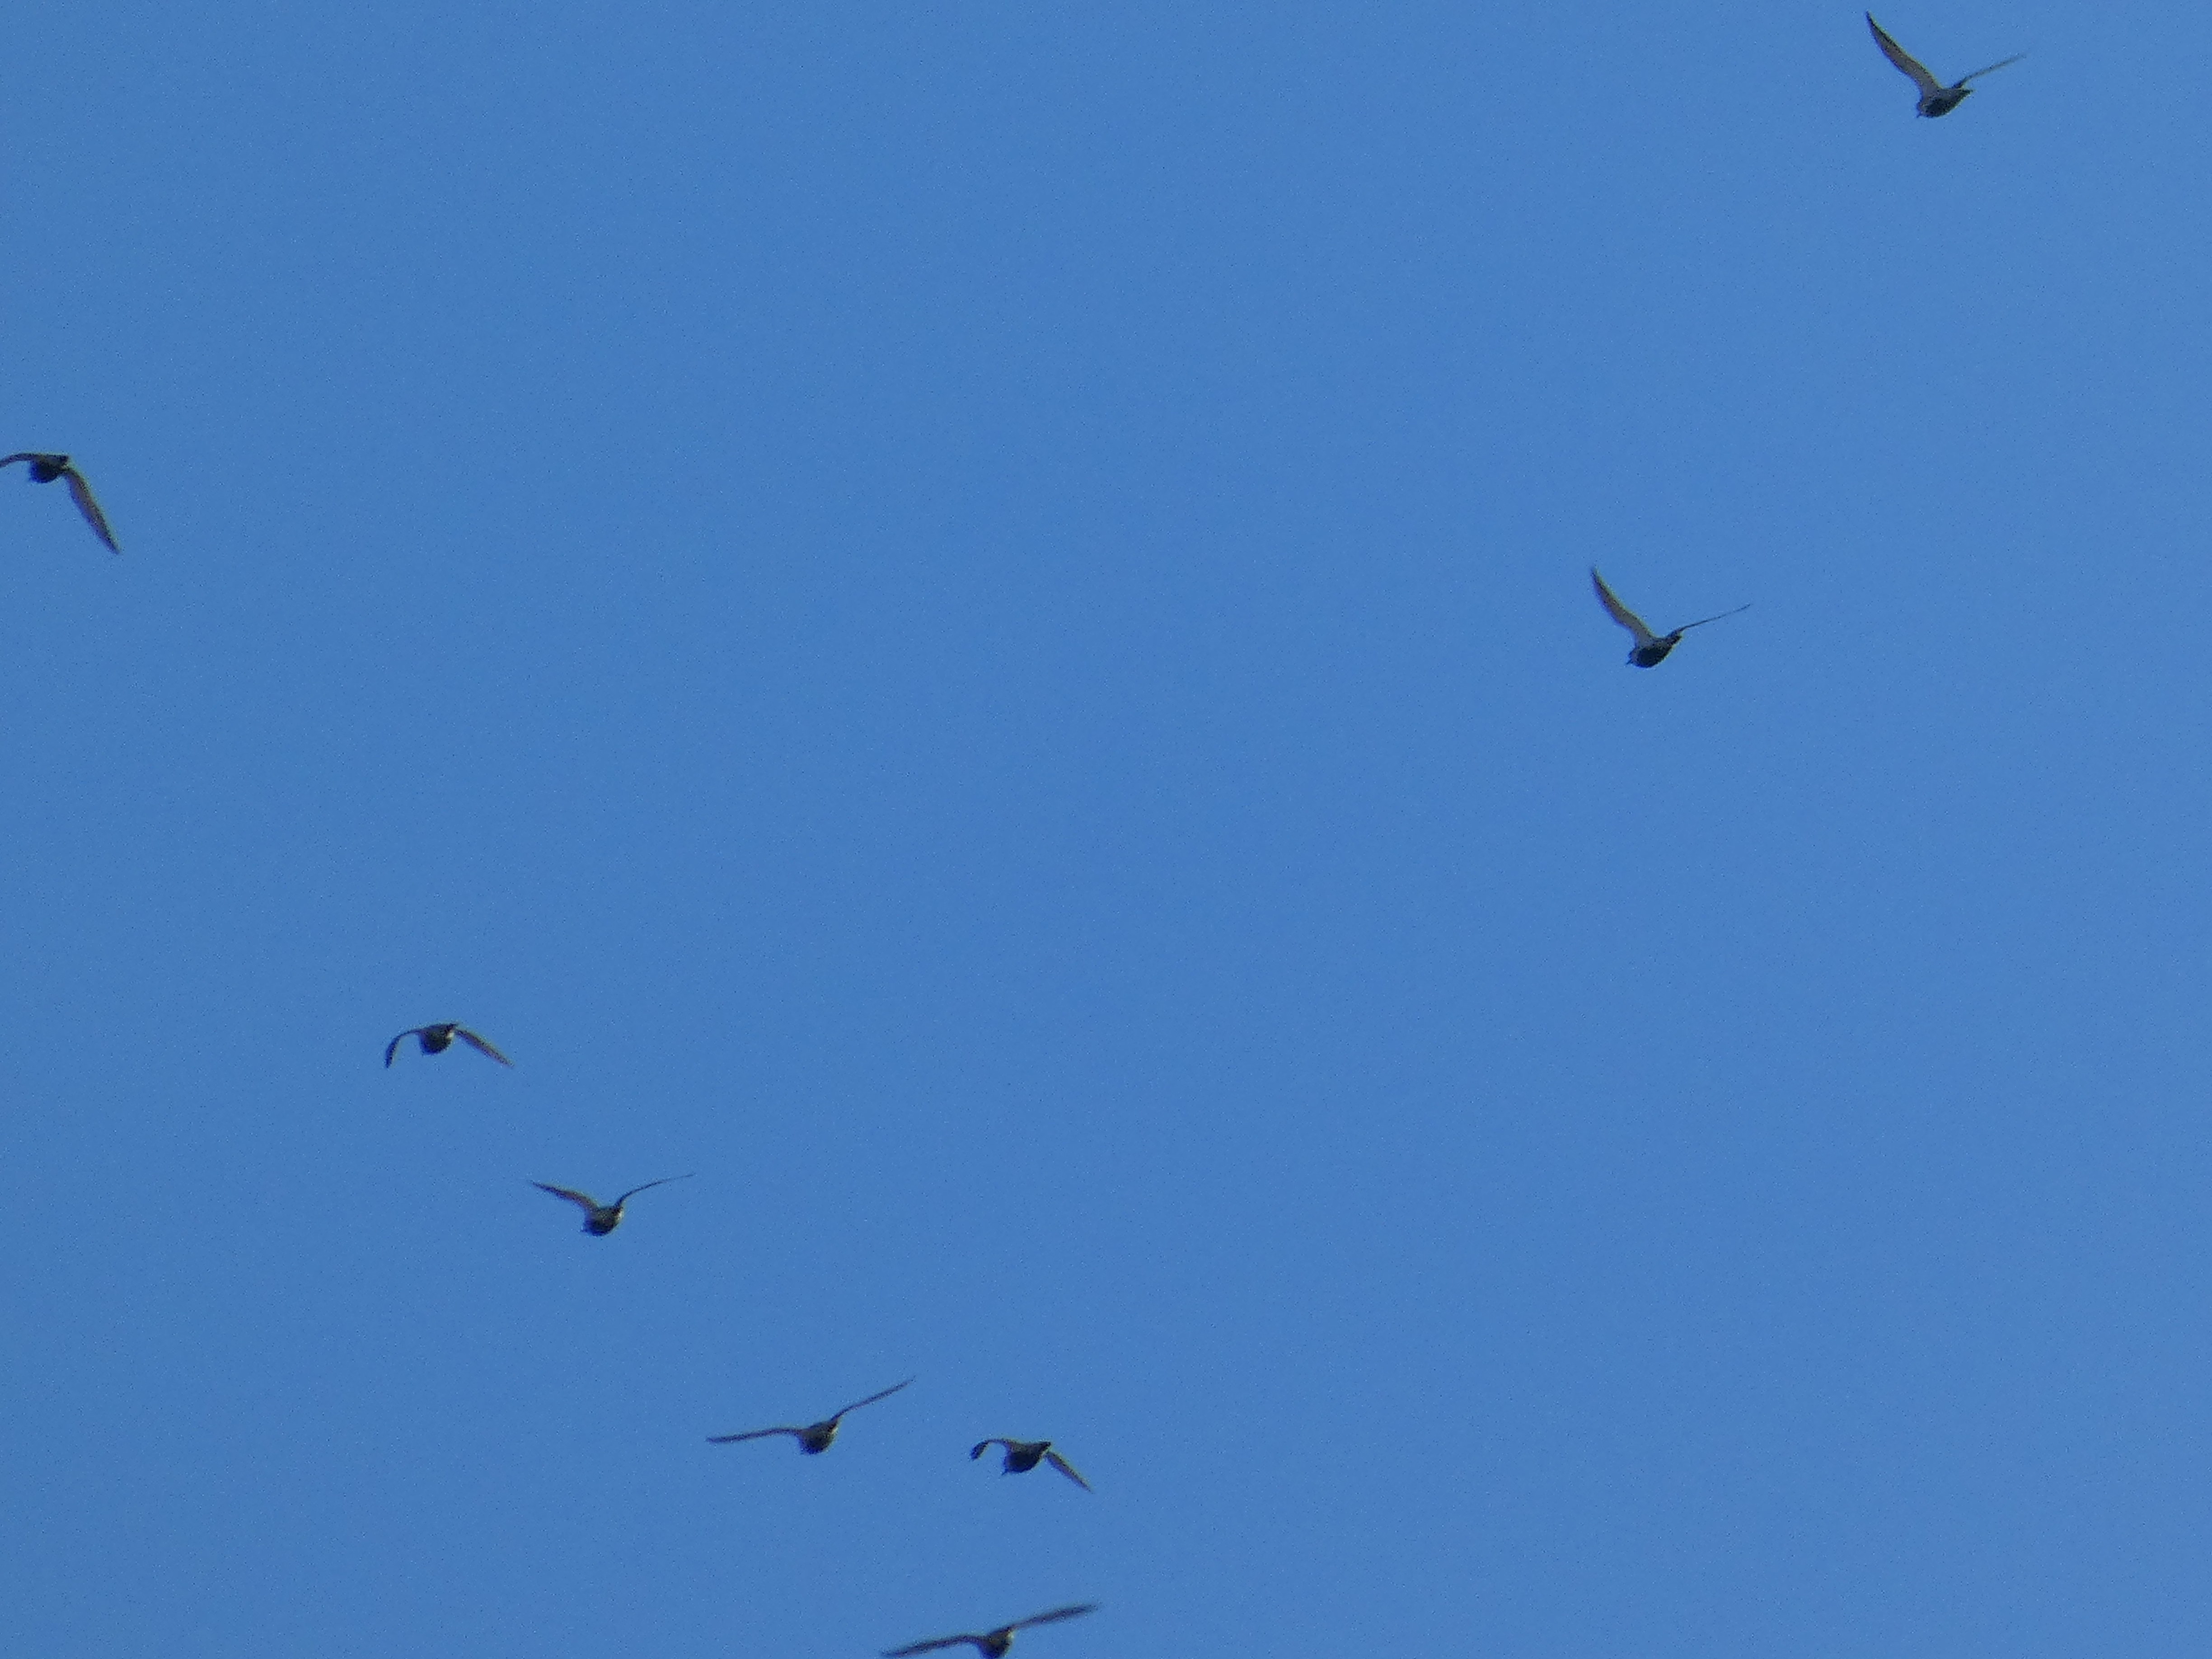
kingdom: Animalia
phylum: Chordata
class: Aves
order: Charadriiformes
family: Charadriidae
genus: Pluvialis
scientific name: Pluvialis apricaria
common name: Hjejle
